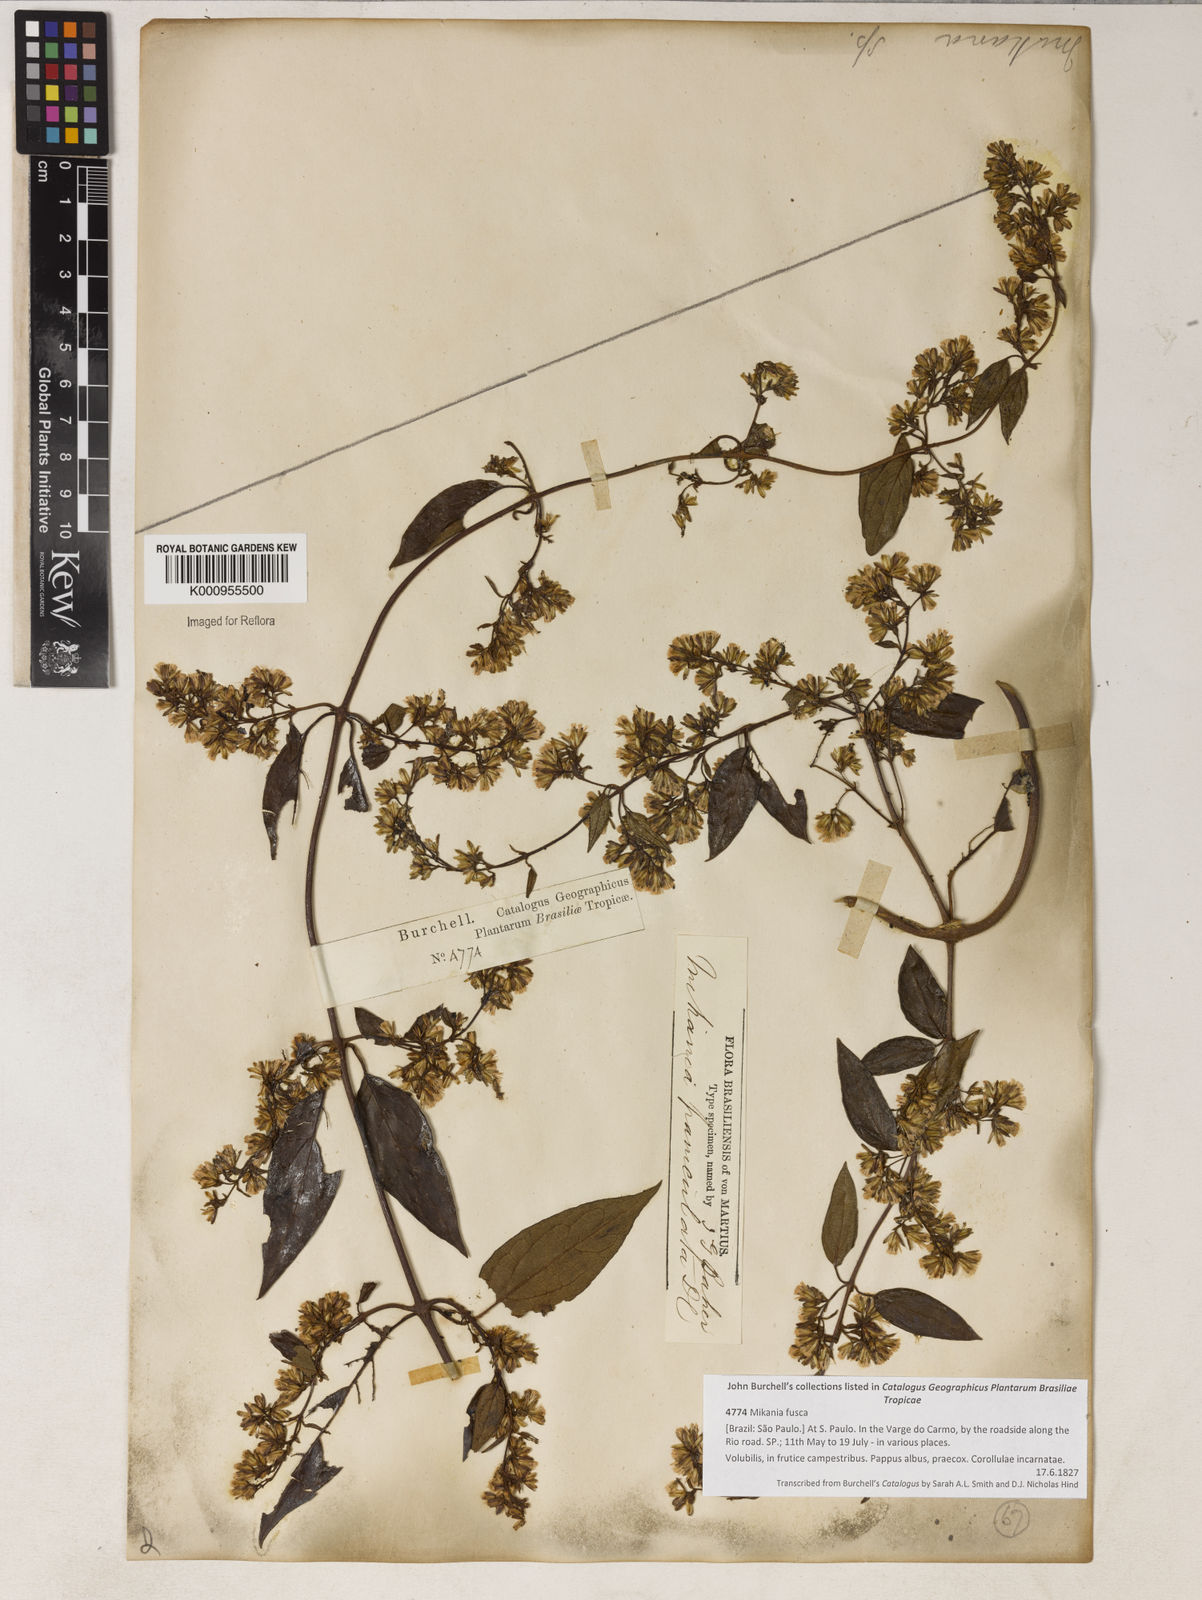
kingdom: Plantae
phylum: Tracheophyta
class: Magnoliopsida
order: Asterales
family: Asteraceae
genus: Mikania
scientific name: Mikania paniculata
